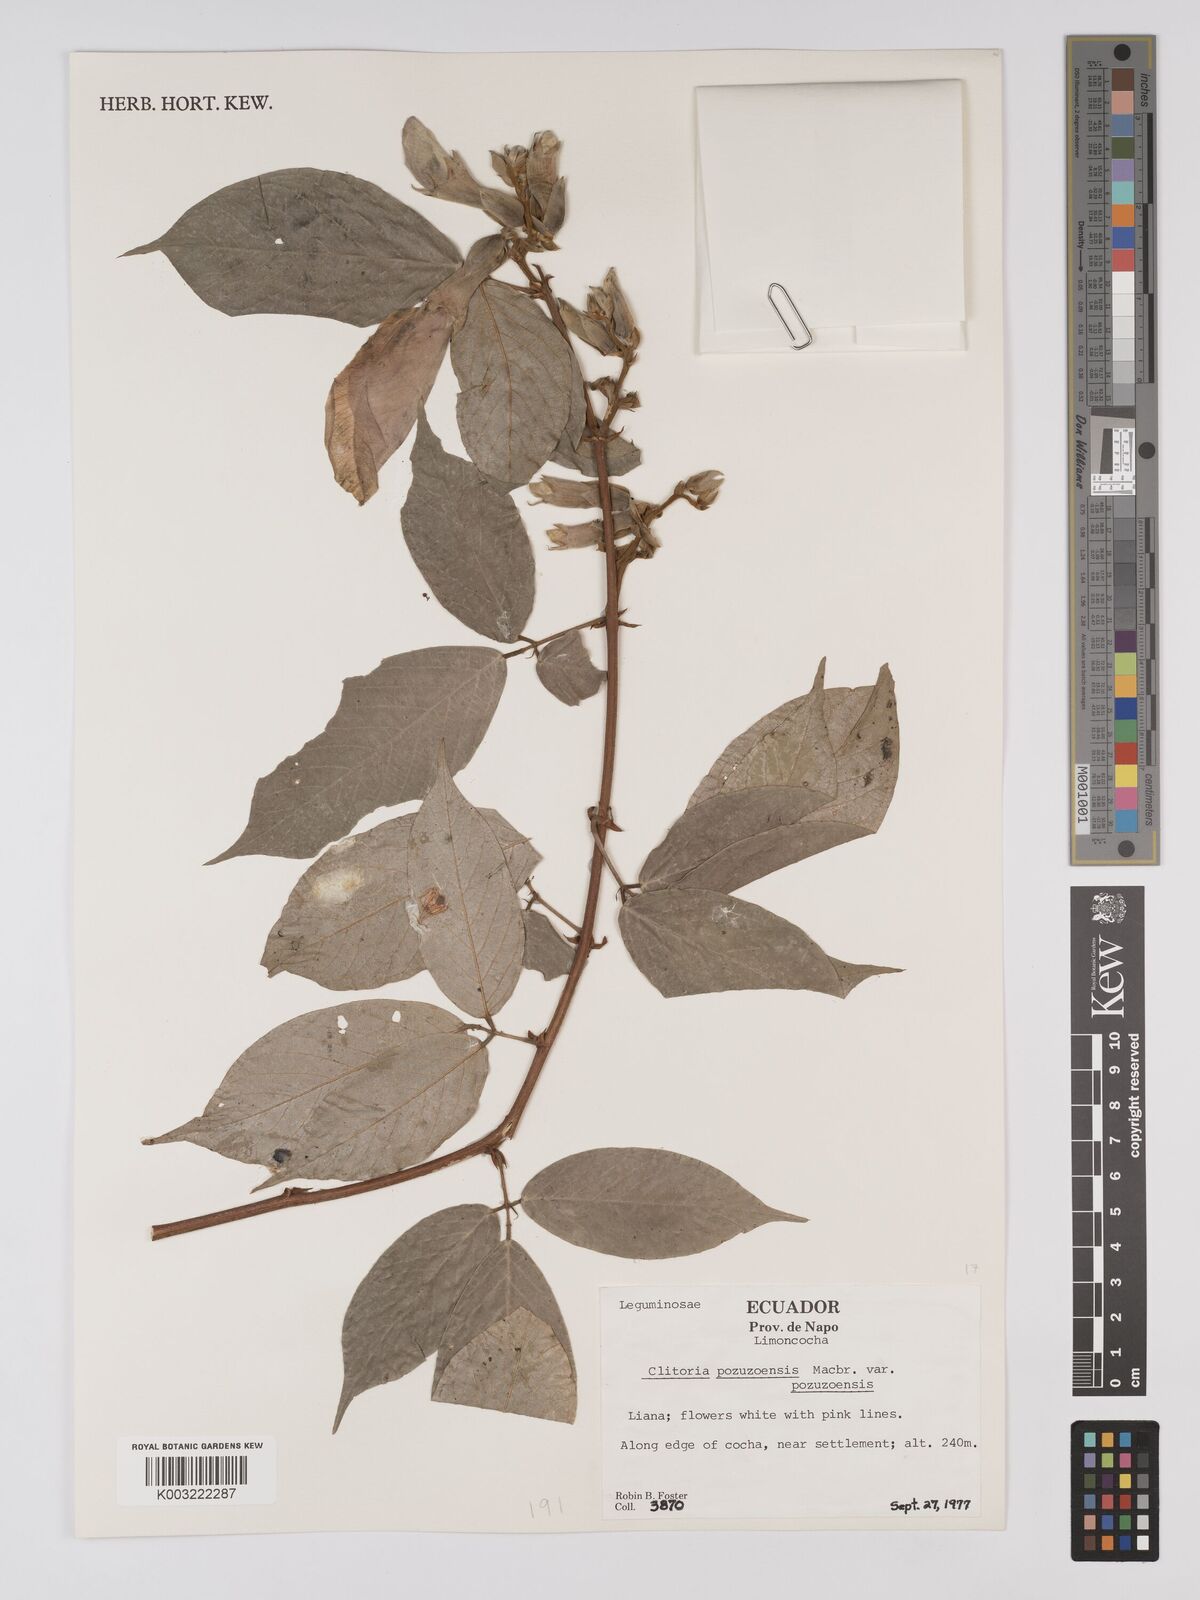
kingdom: Plantae
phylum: Tracheophyta
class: Magnoliopsida
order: Fabales
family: Fabaceae
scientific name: Fabaceae
